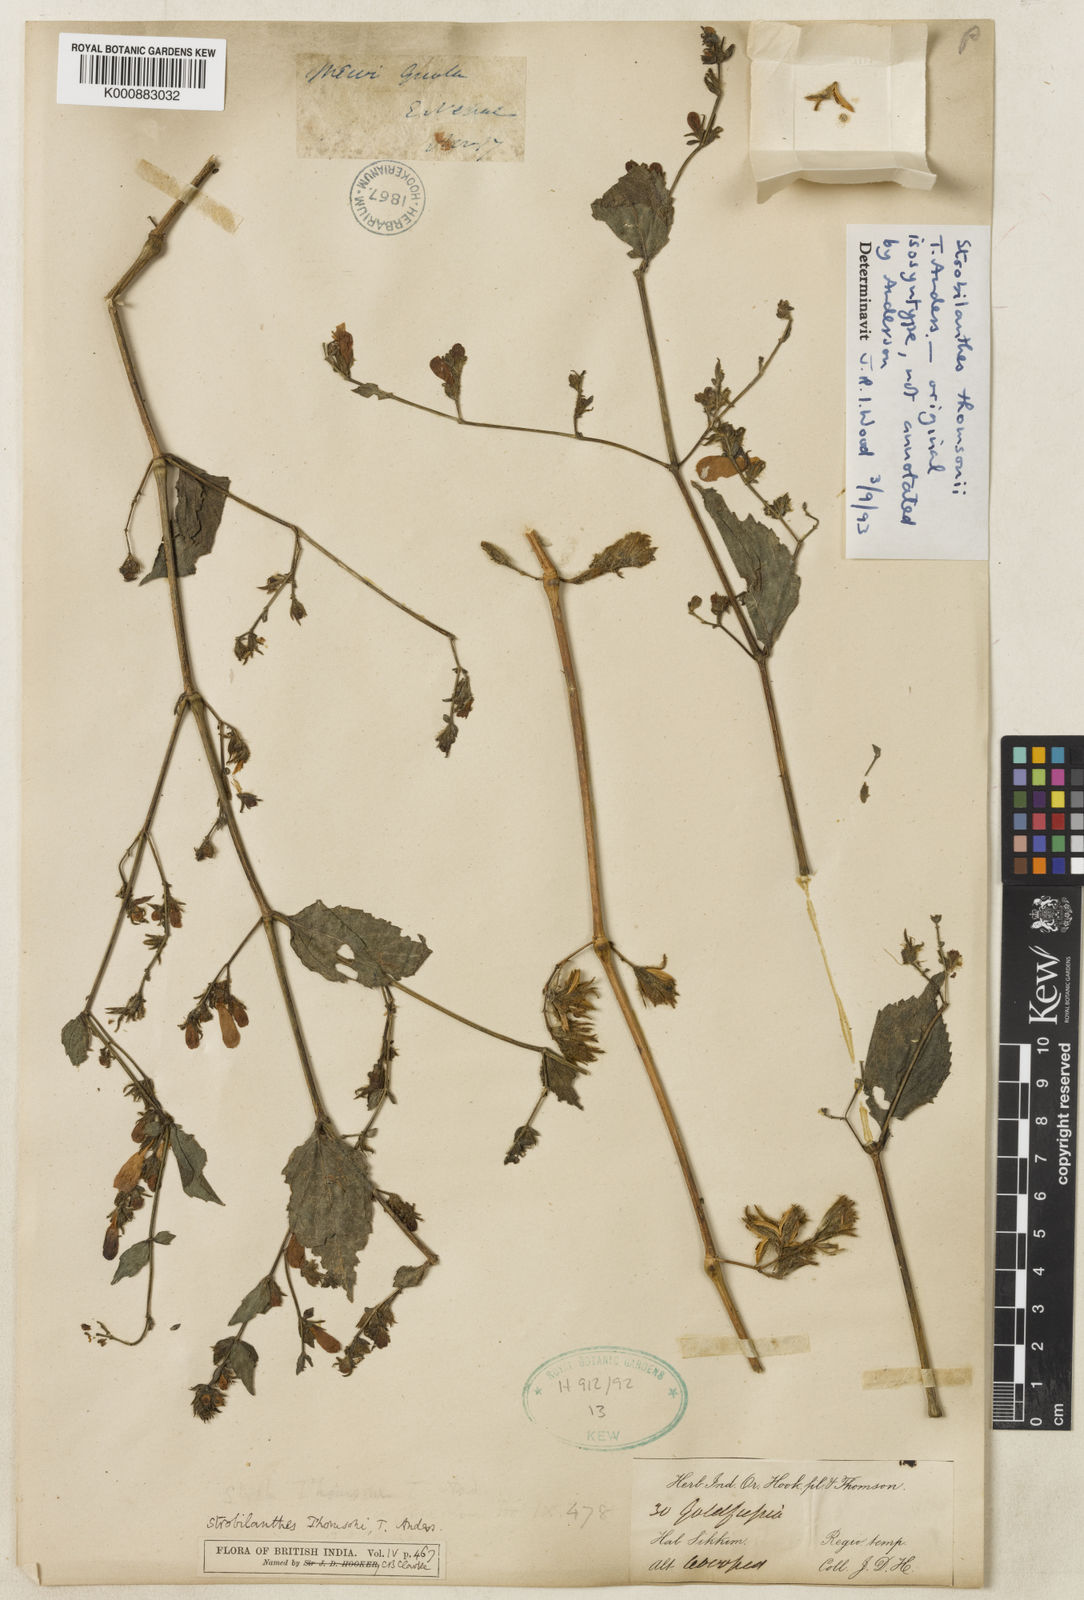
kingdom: Plantae
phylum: Tracheophyta
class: Magnoliopsida
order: Lamiales
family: Acanthaceae
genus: Strobilanthes
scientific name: Strobilanthes thomsonii
